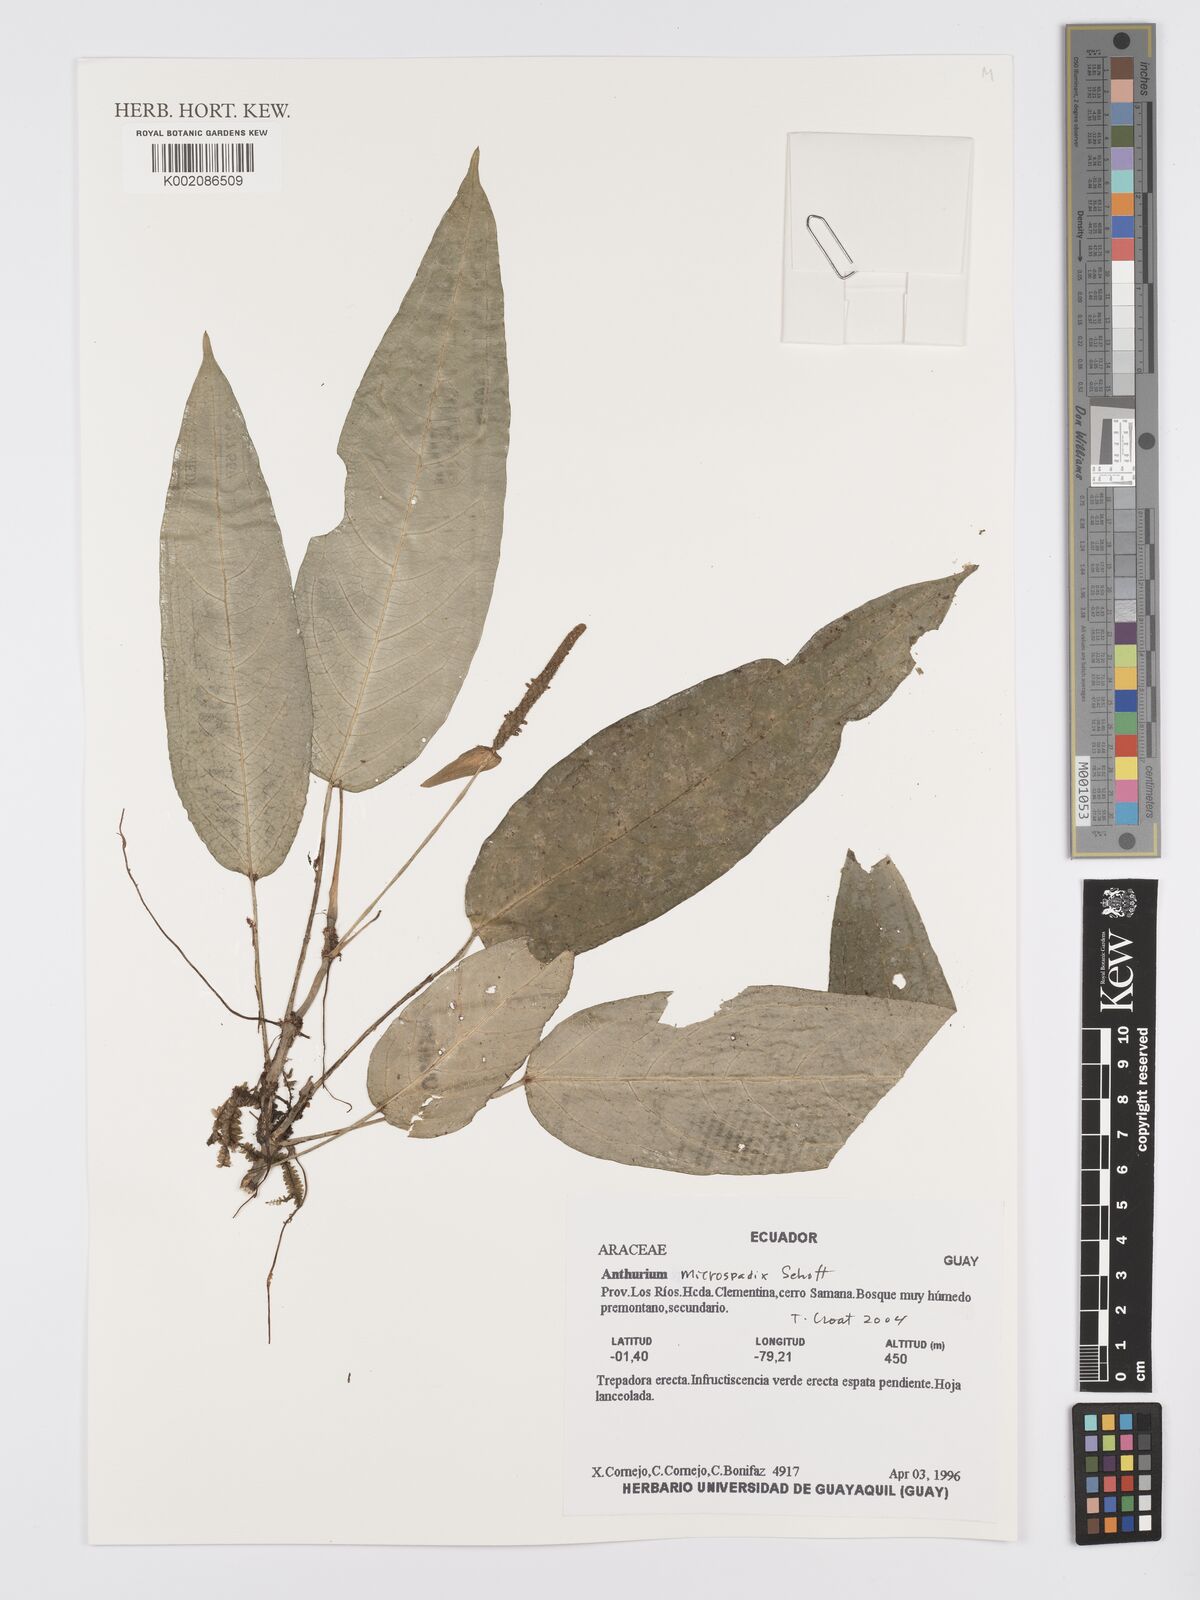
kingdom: Plantae
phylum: Tracheophyta
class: Liliopsida
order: Alismatales
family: Araceae
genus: Anthurium
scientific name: Anthurium microspadix
